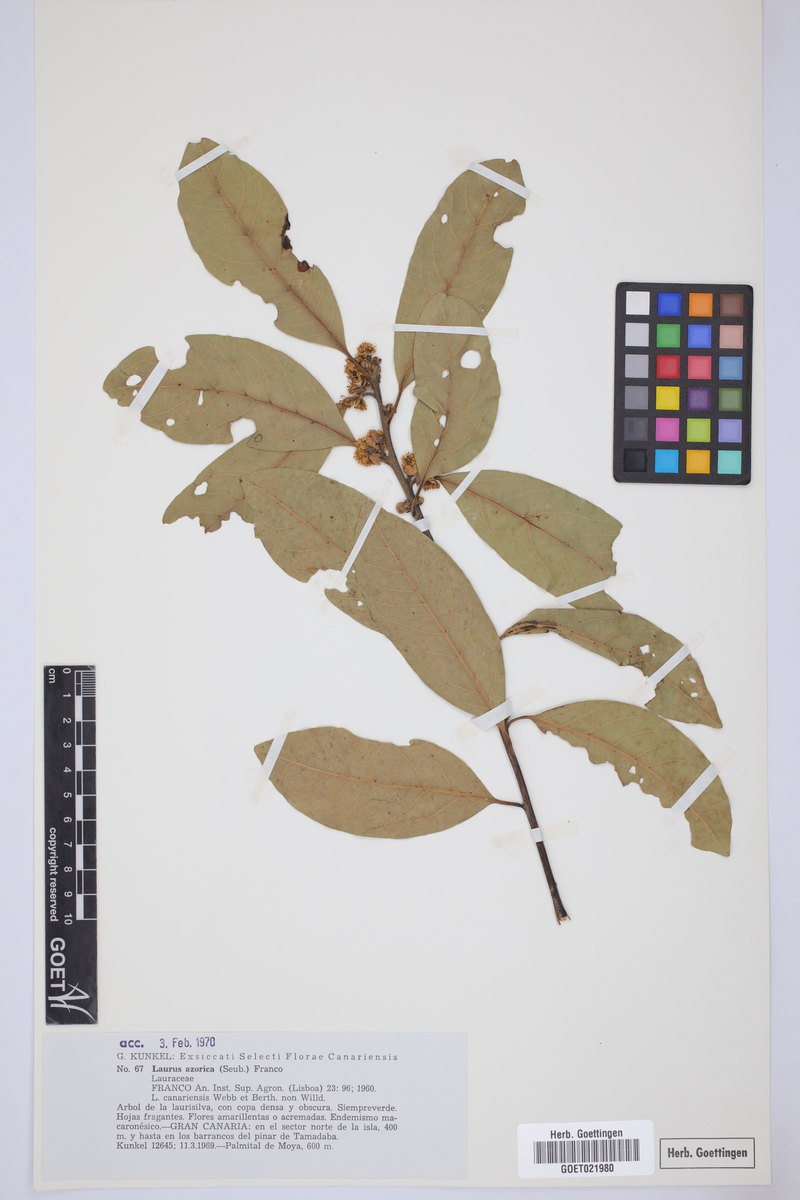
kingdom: Plantae
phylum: Tracheophyta
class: Magnoliopsida
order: Laurales
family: Lauraceae
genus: Laurus
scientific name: Laurus azorica
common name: Macaronesian laurel
